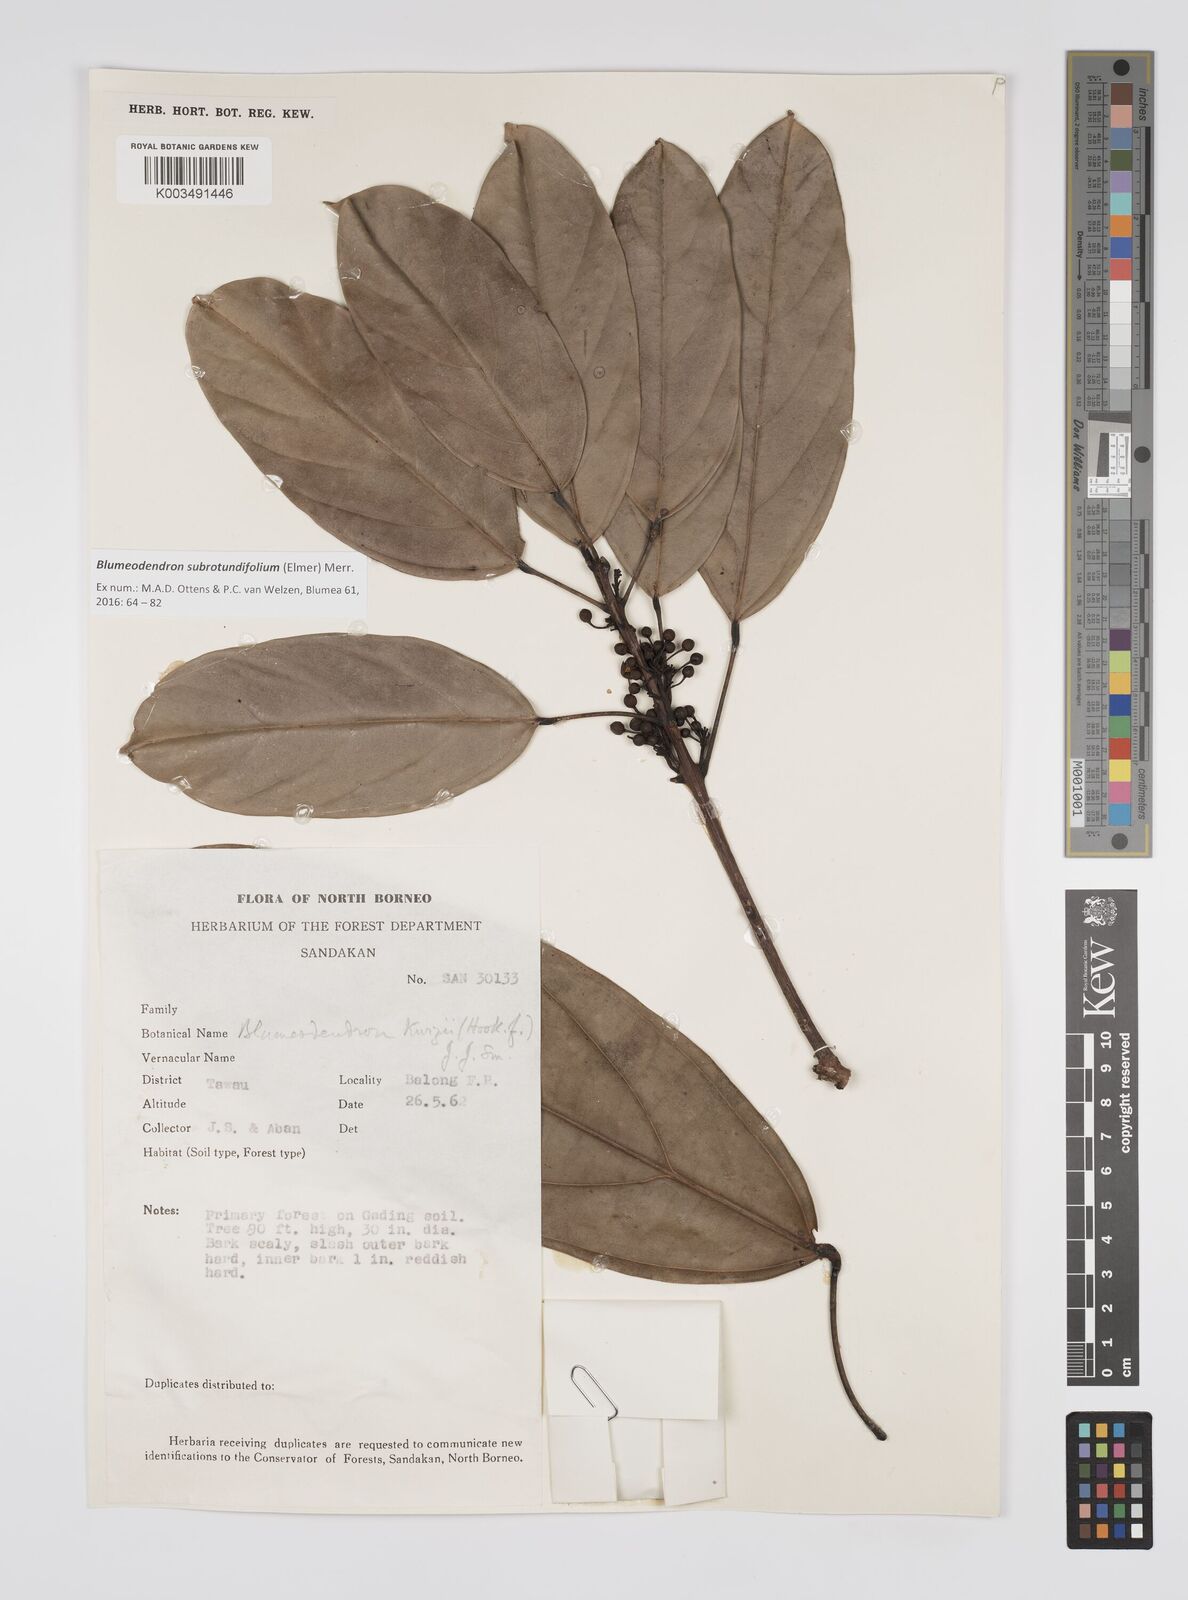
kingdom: Plantae
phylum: Tracheophyta
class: Magnoliopsida
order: Malpighiales
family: Euphorbiaceae
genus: Blumeodendron
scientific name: Blumeodendron subrotundifolium
